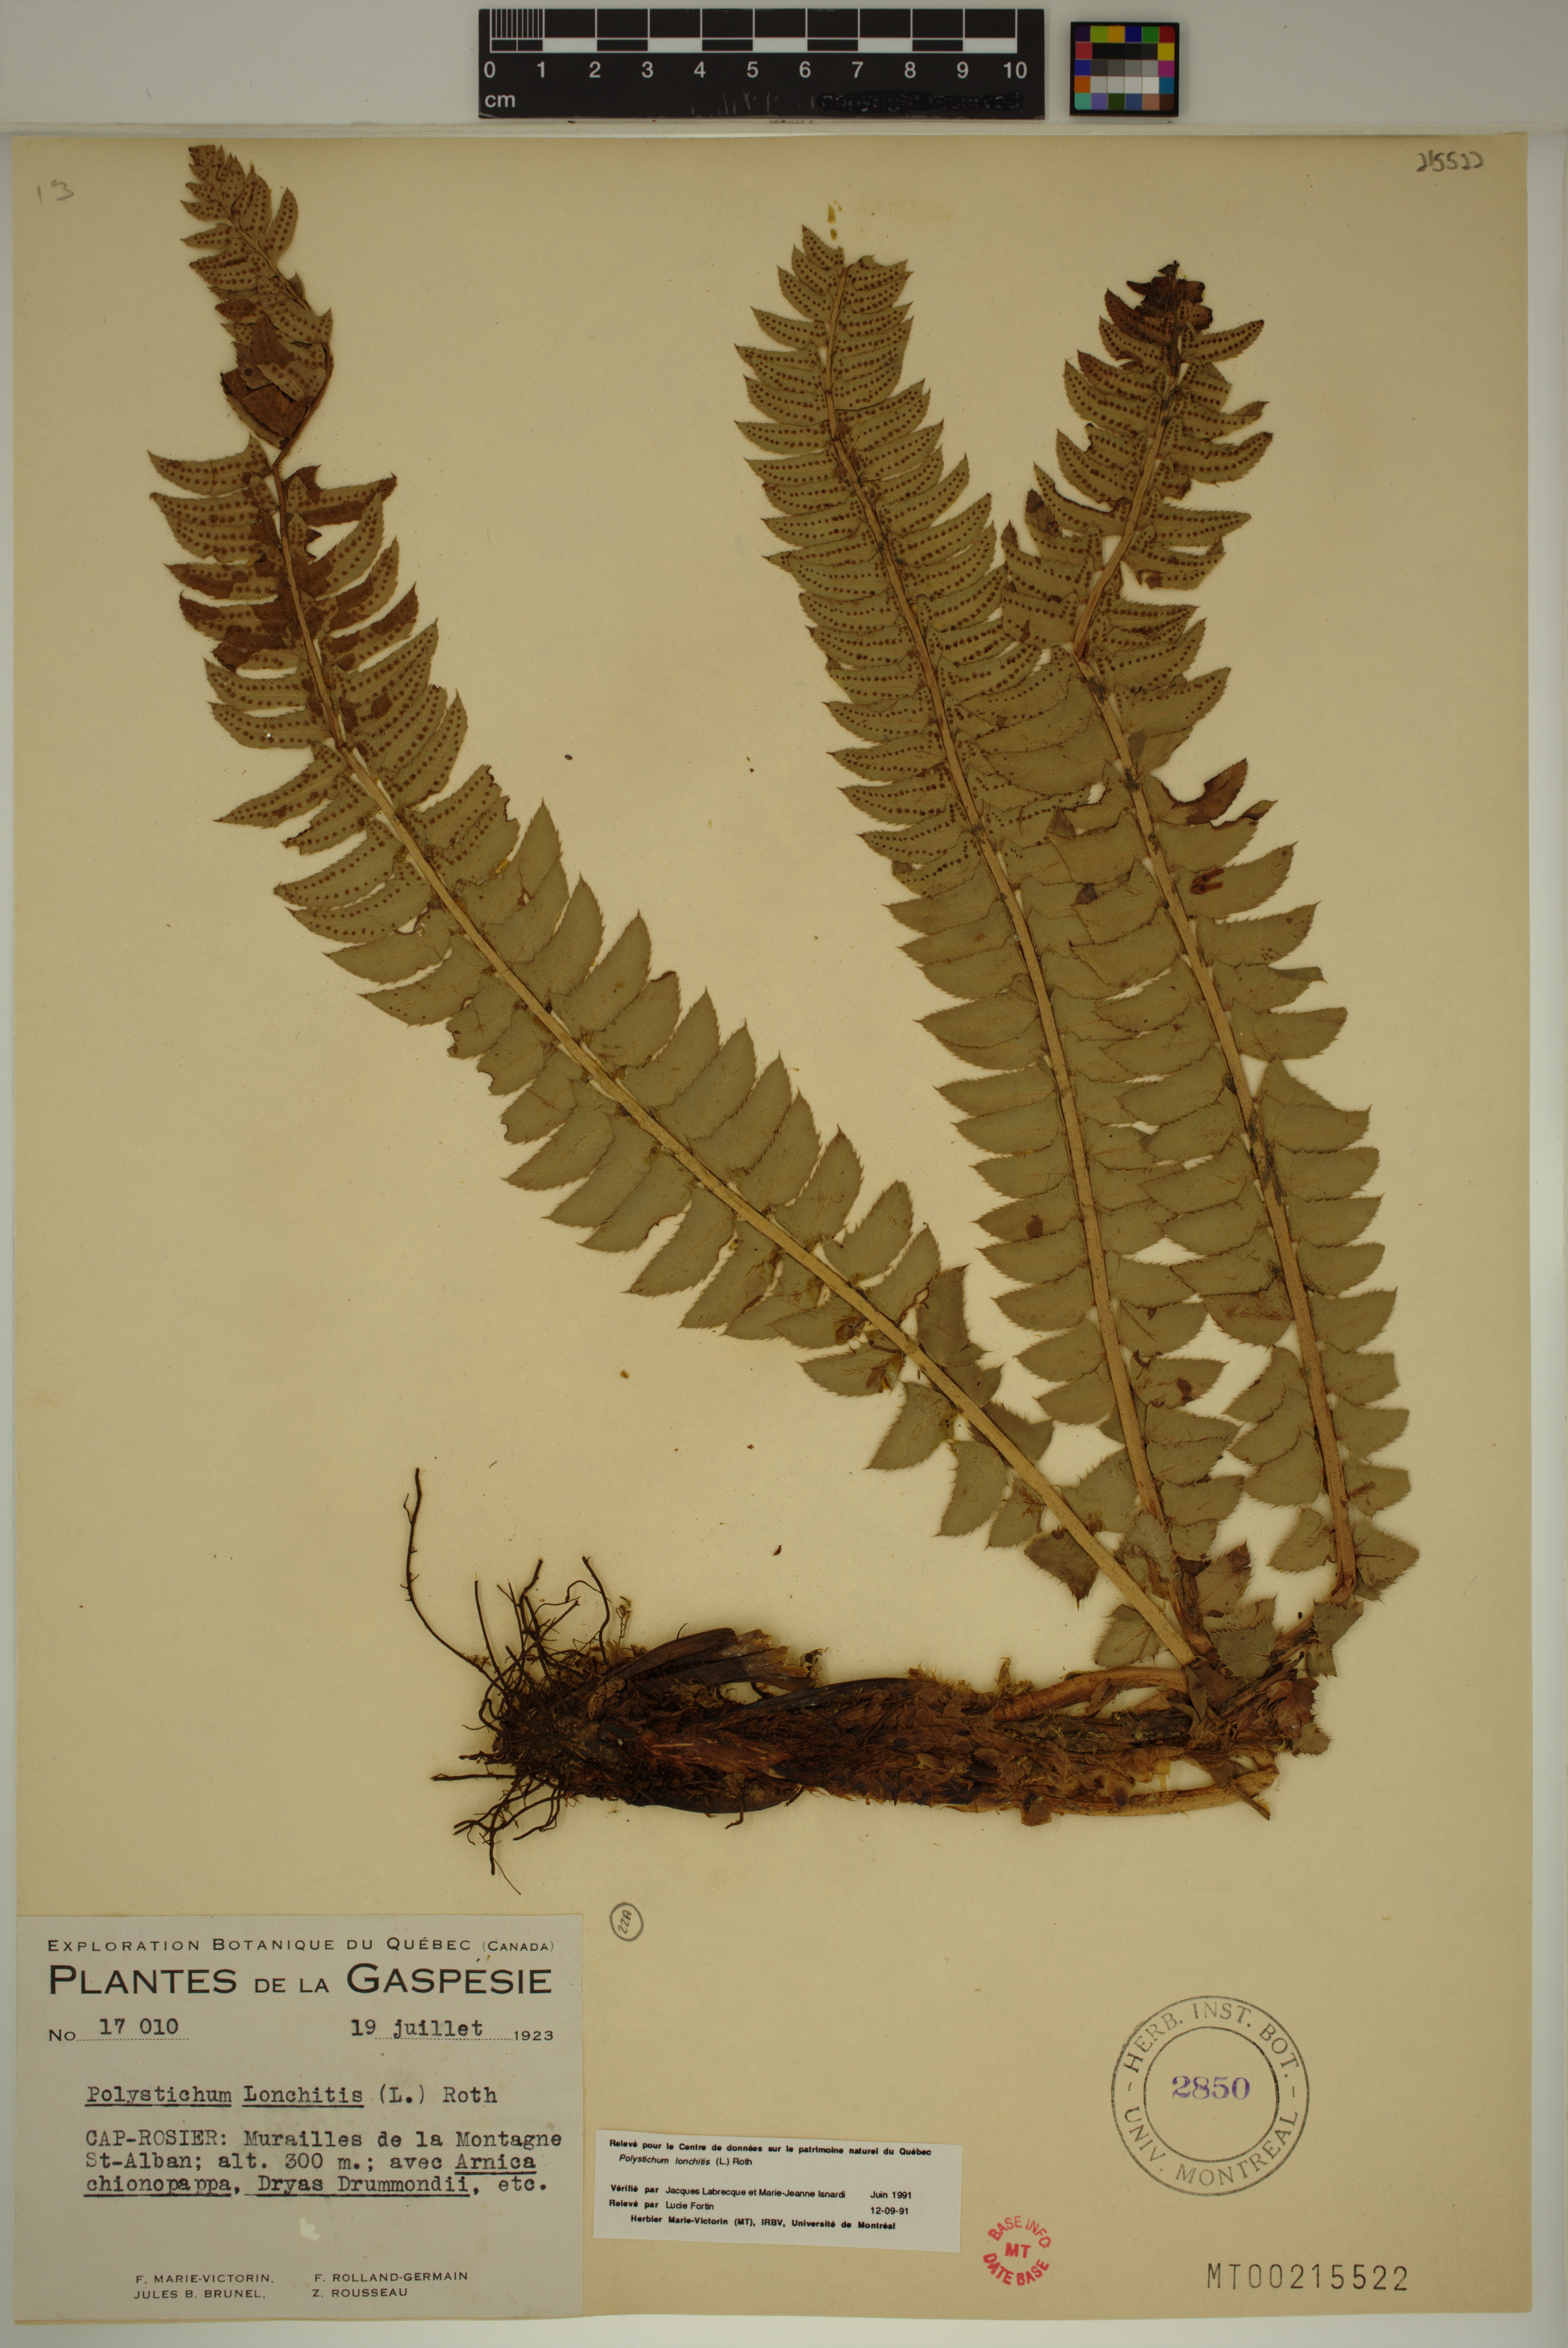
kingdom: Plantae
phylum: Tracheophyta
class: Polypodiopsida
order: Polypodiales
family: Dryopteridaceae
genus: Polystichum
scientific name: Polystichum lonchitis
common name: Holly fern
